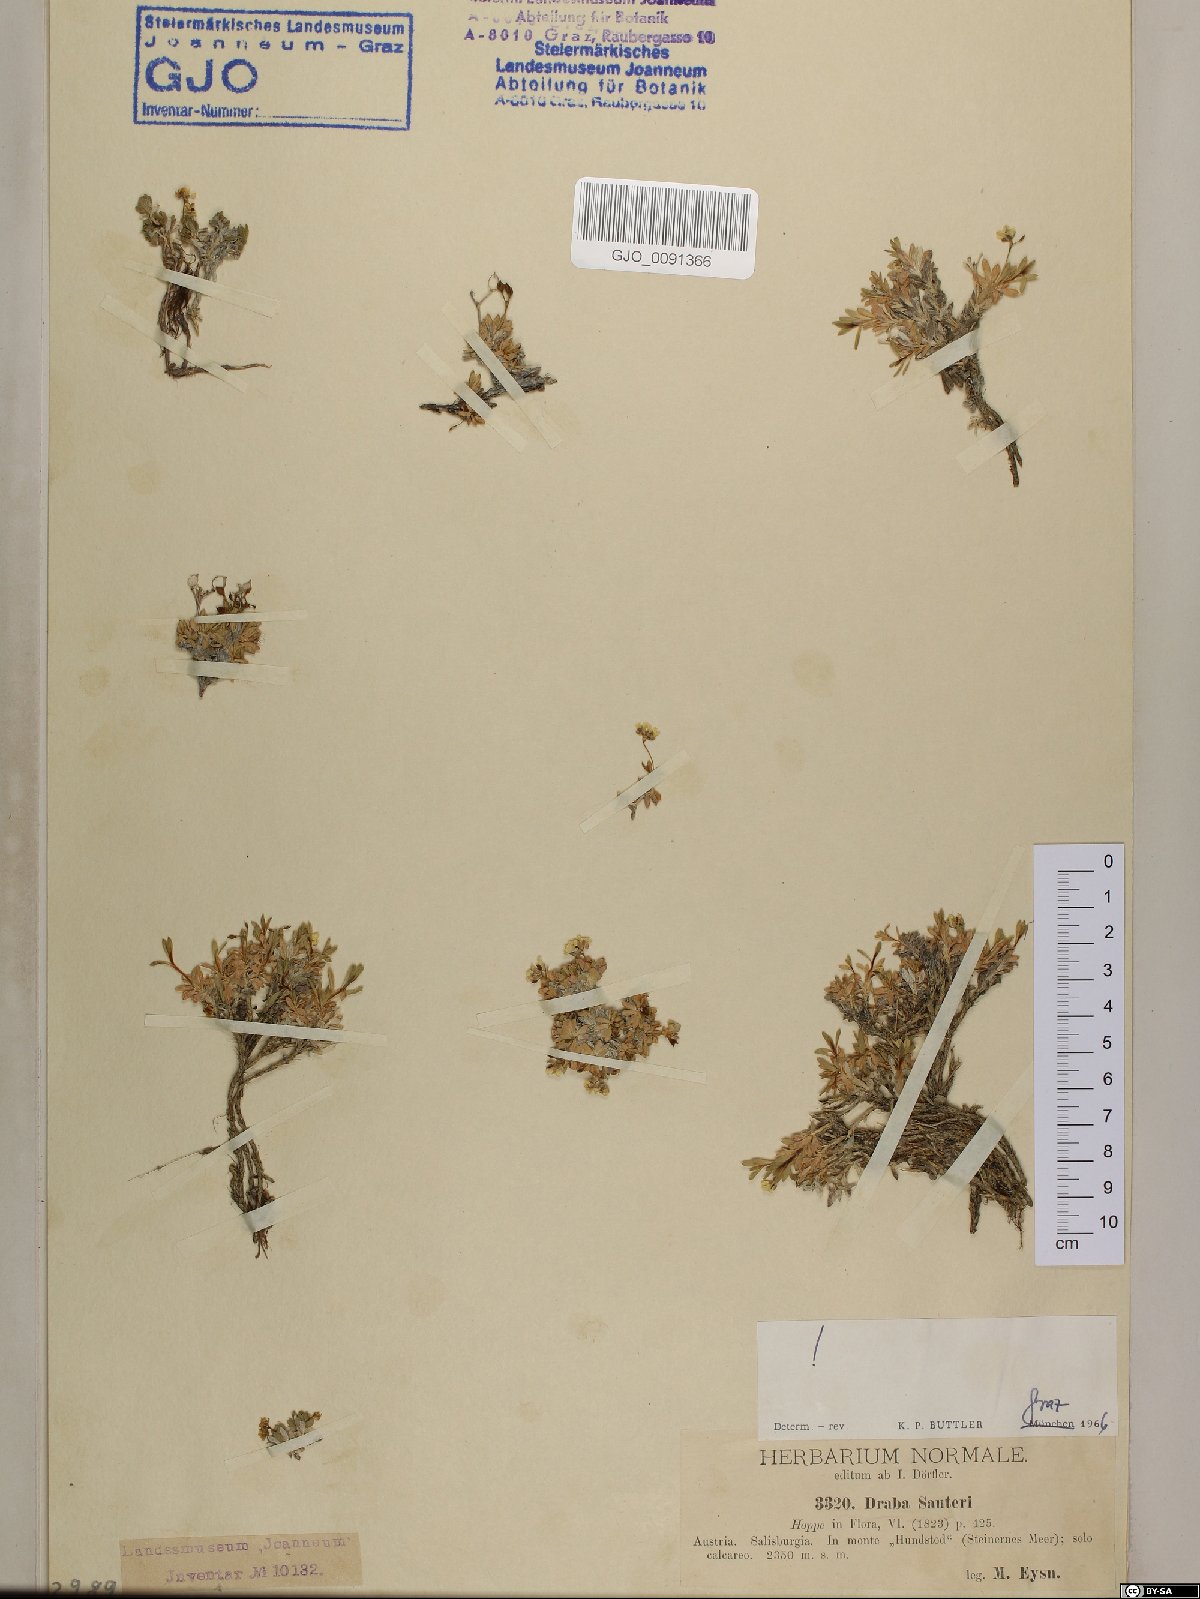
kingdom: Plantae
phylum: Tracheophyta
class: Magnoliopsida
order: Brassicales
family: Brassicaceae
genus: Draba
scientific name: Draba sauteri
